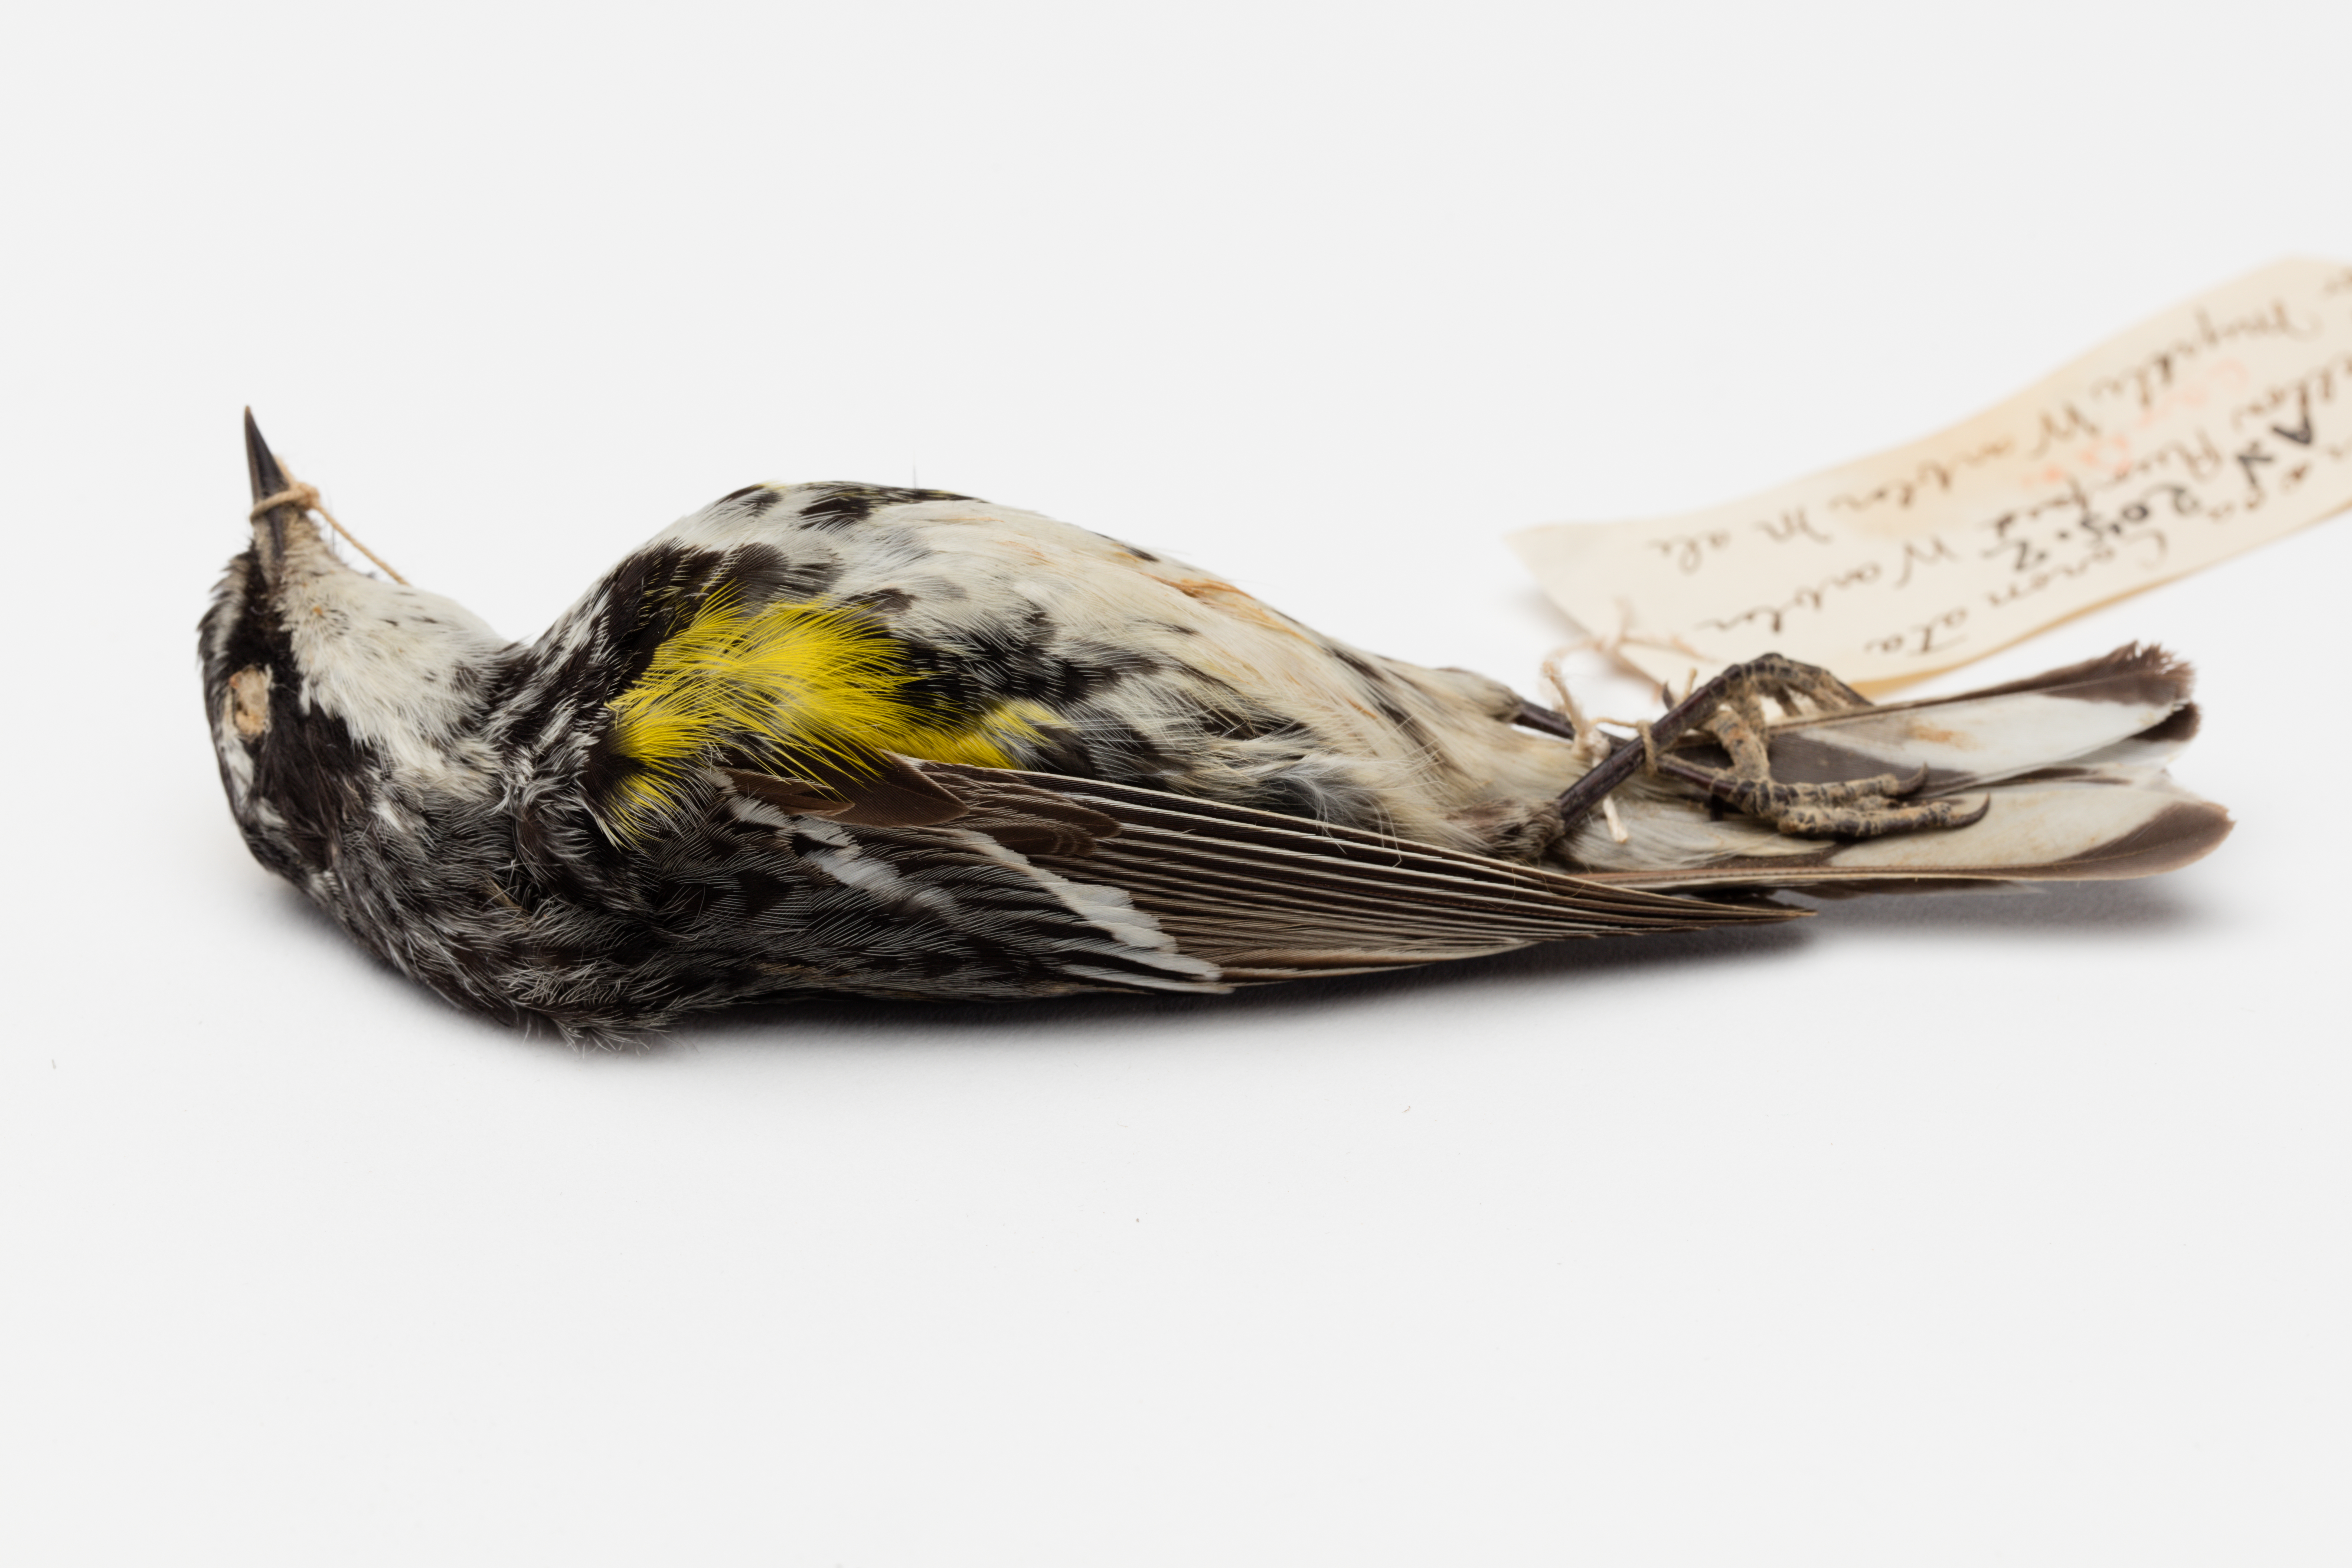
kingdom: Animalia
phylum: Chordata
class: Aves
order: Passeriformes
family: Parulidae
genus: Setophaga
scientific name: Setophaga coronata
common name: Myrtle warbler
